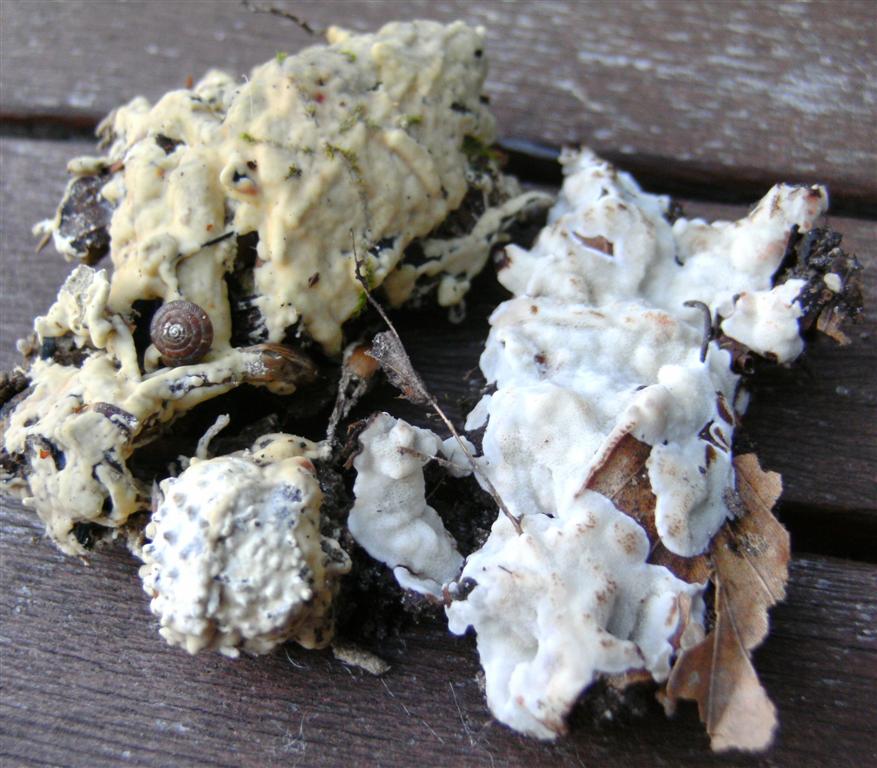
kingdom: Fungi
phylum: Basidiomycota
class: Agaricomycetes
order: Polyporales
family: Meripilaceae
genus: Rigidoporus
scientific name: Rigidoporus sanguinolentus
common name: blod-skorpeporesvamp
